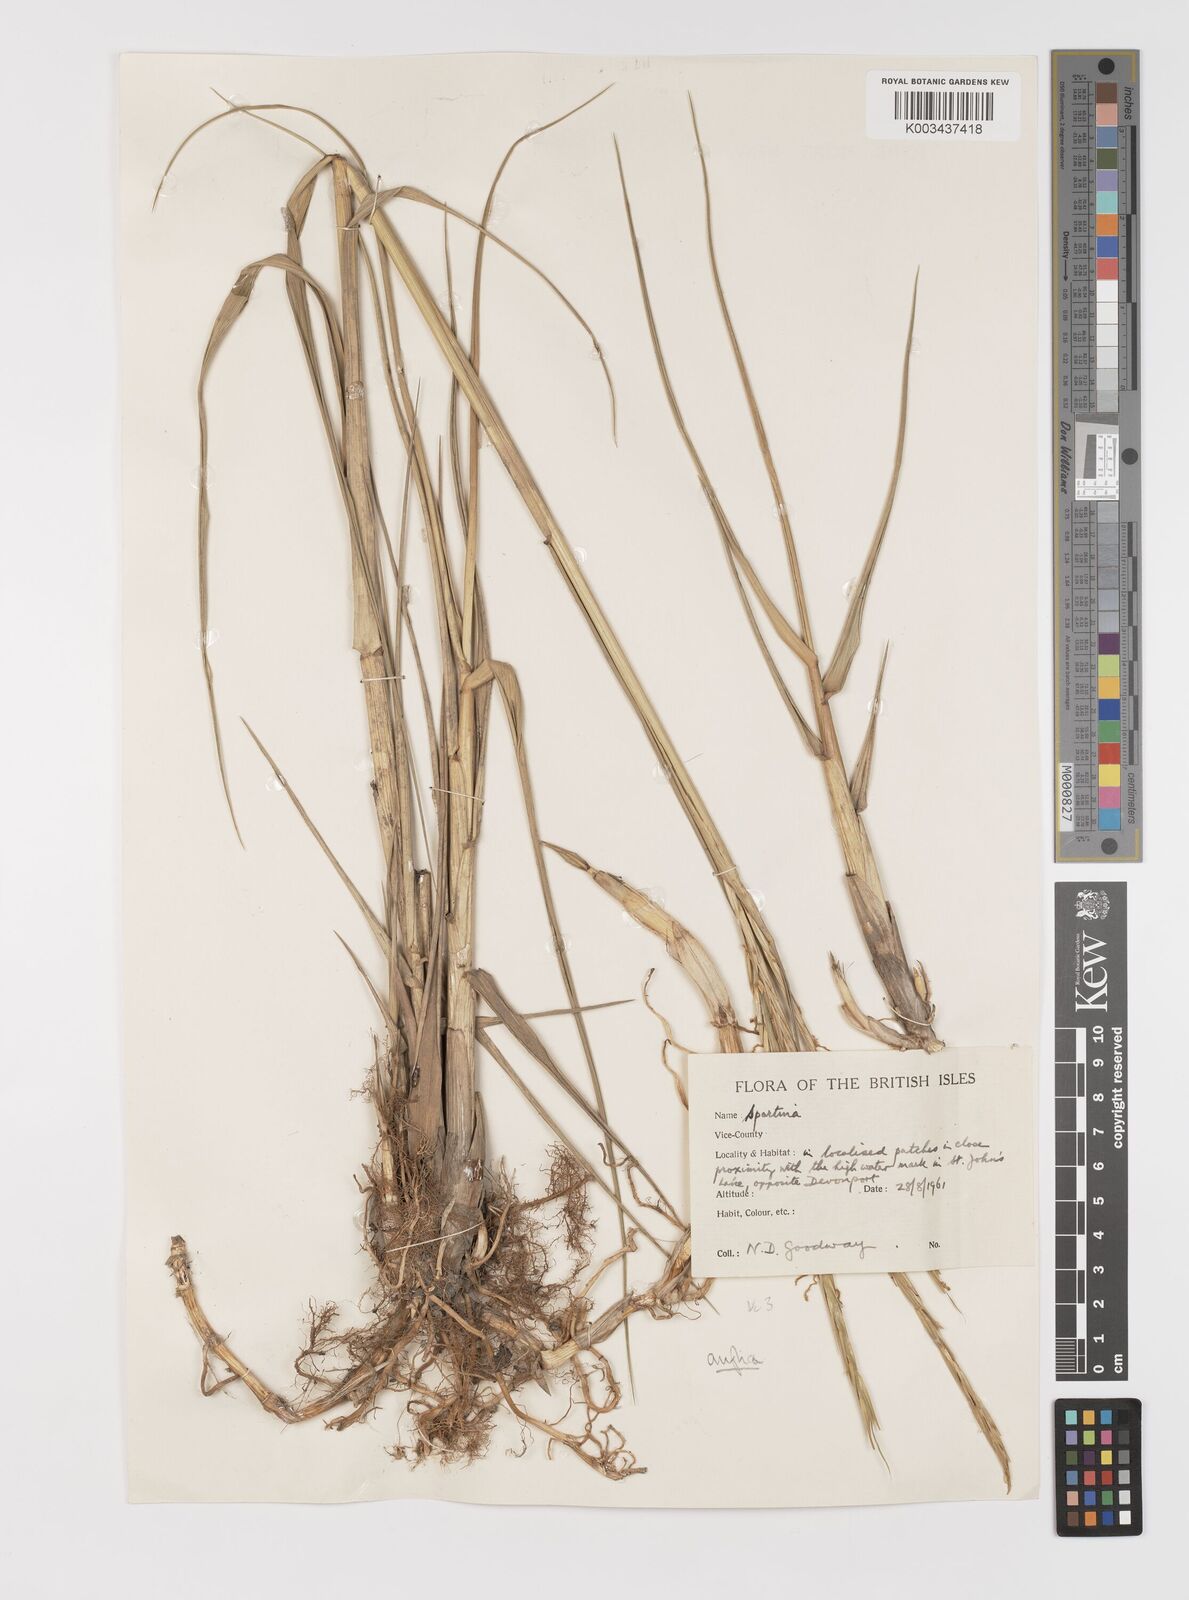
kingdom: Plantae
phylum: Tracheophyta
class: Liliopsida
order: Poales
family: Poaceae
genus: Sporobolus
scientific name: Sporobolus anglicus
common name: English cordgrass
